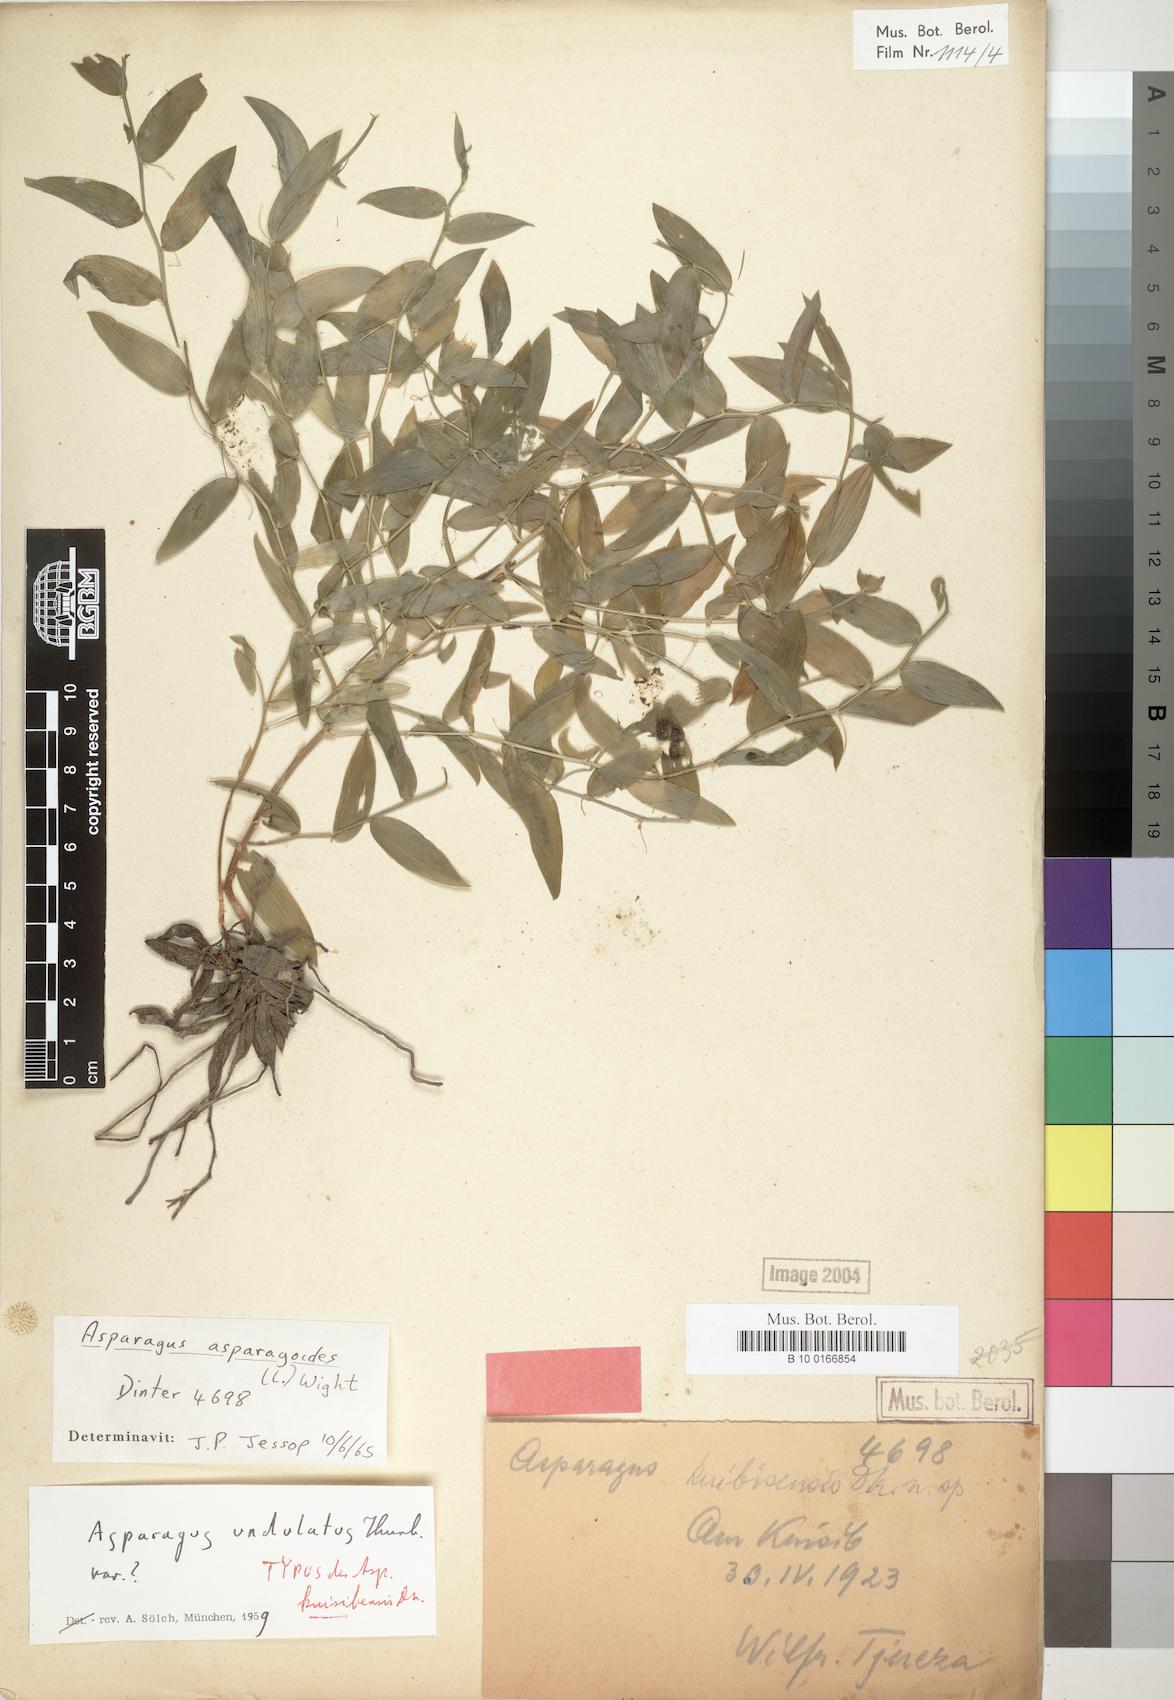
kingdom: Plantae
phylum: Tracheophyta
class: Liliopsida
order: Asparagales
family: Asparagaceae
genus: Asparagus
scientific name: Asparagus asparagoides
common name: African asparagus fern
